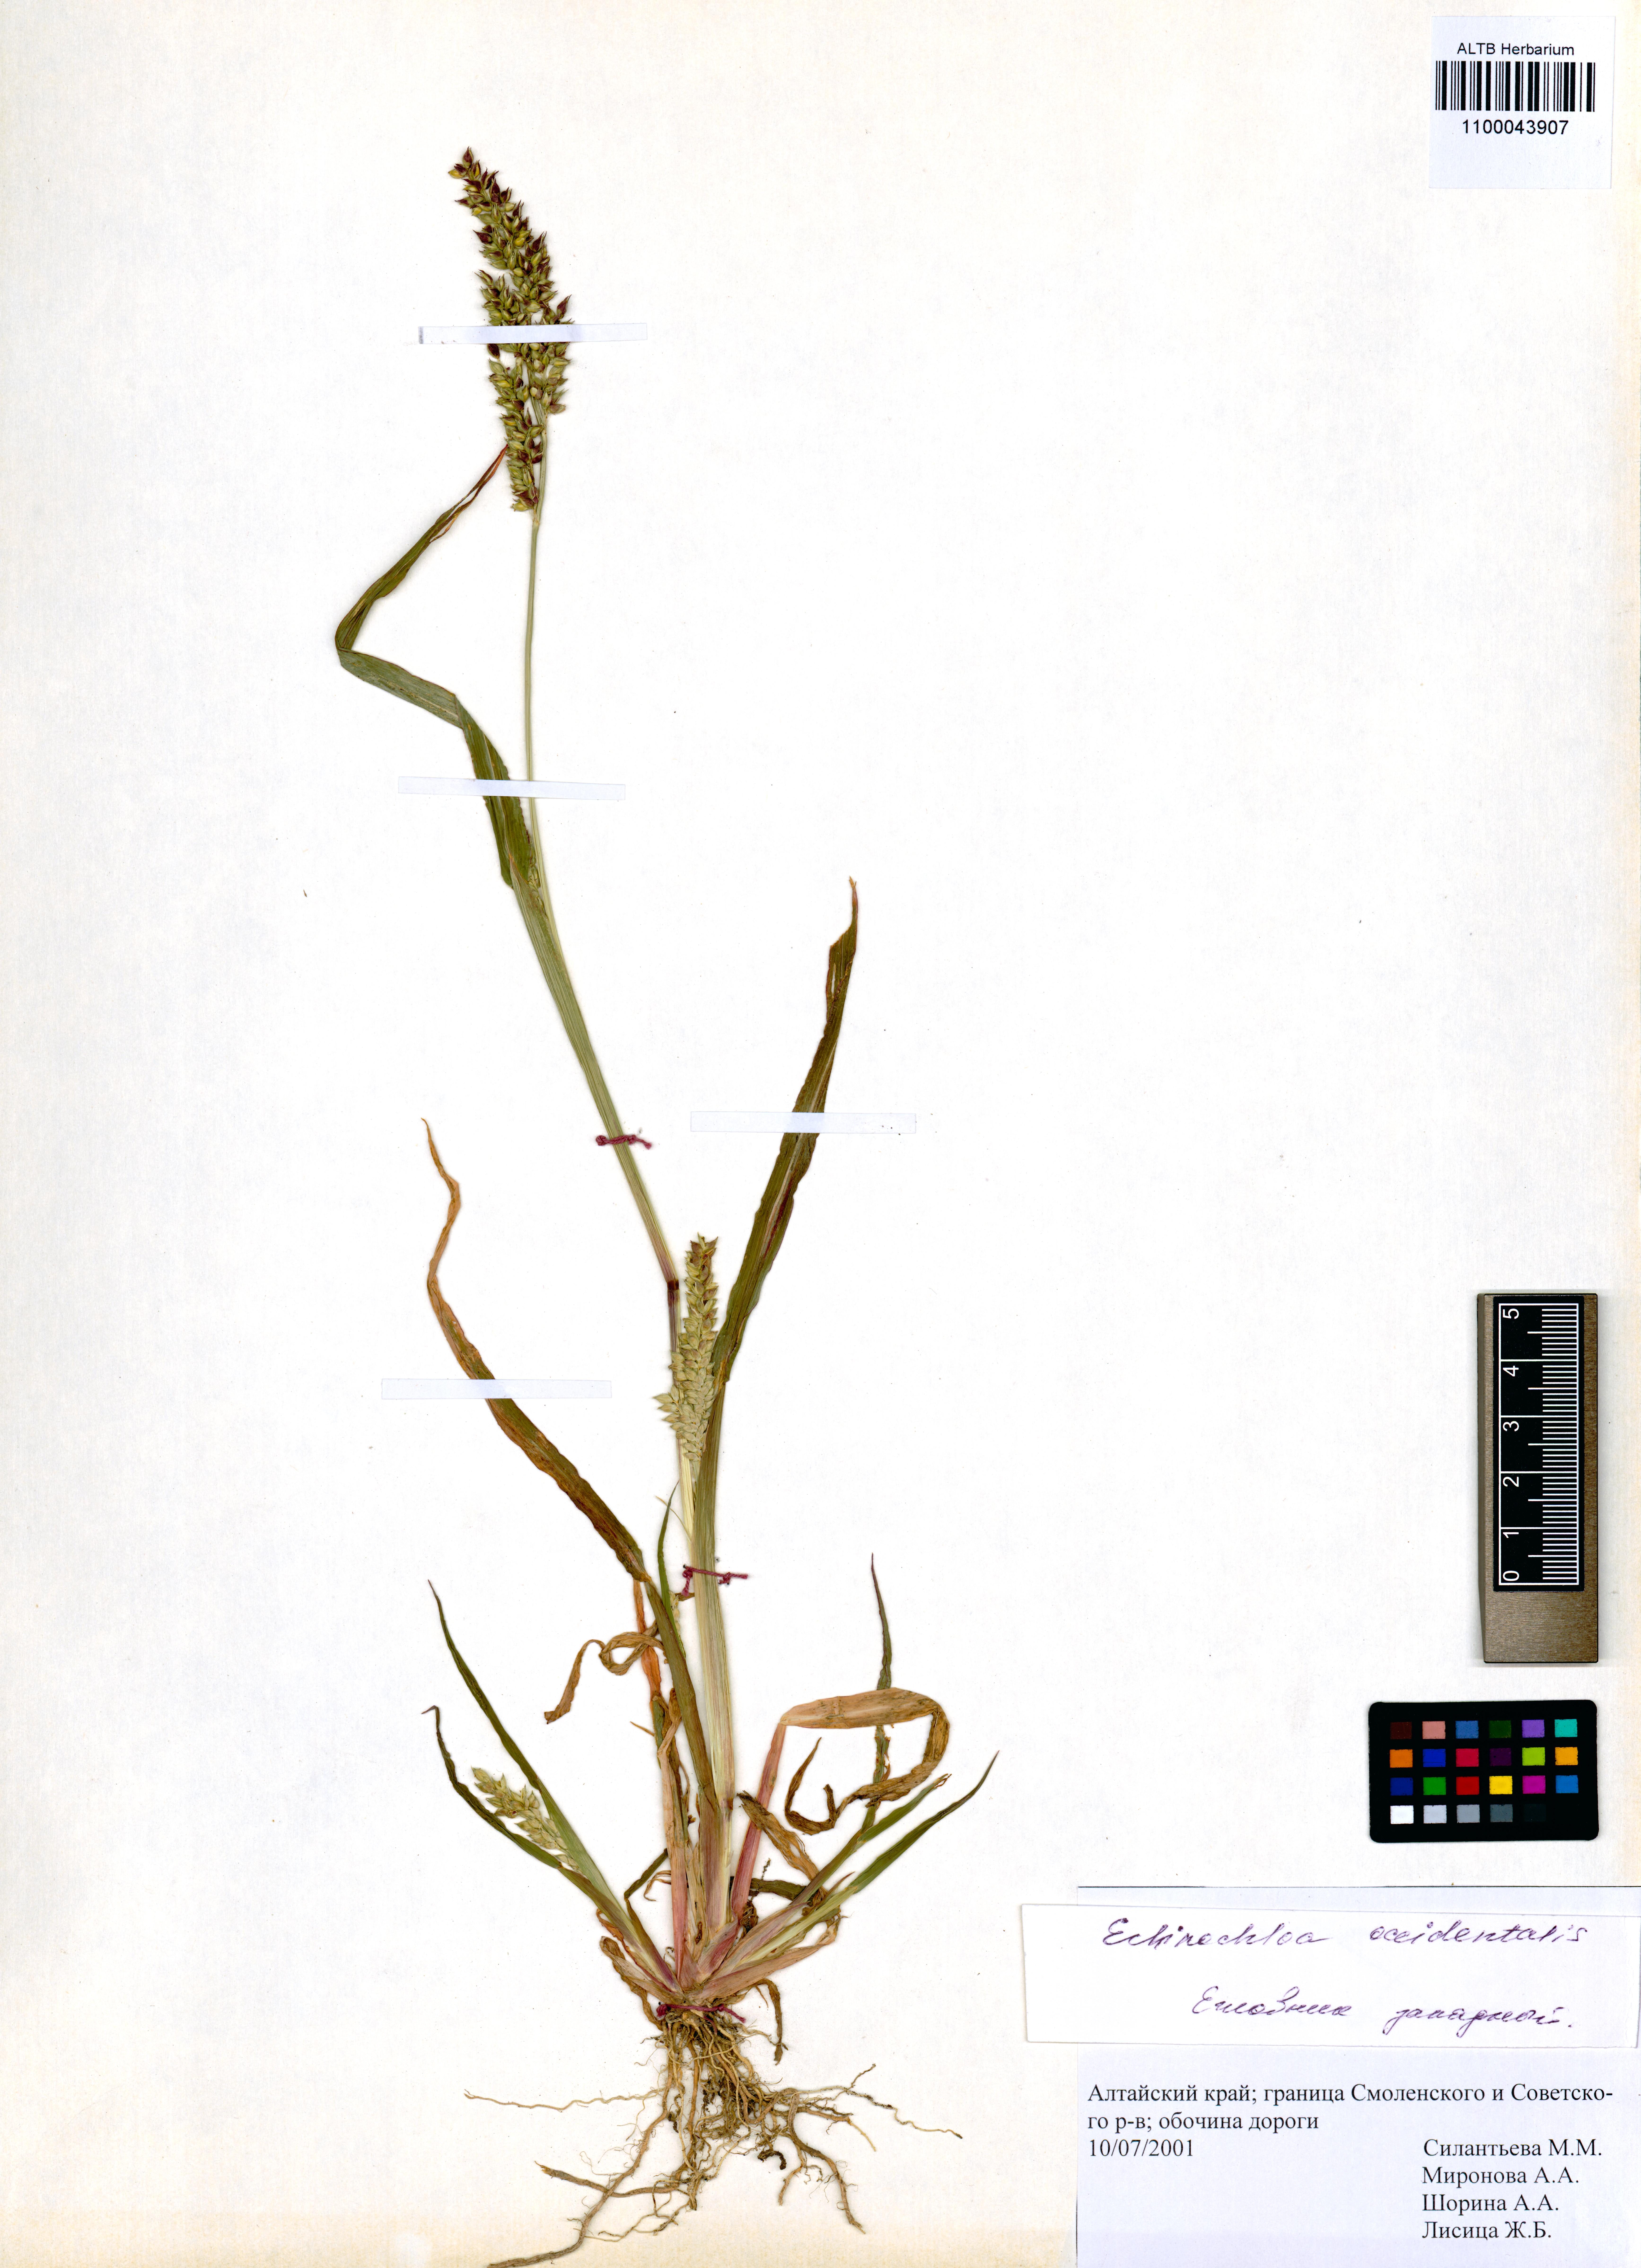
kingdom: Plantae
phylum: Tracheophyta
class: Liliopsida
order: Poales
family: Poaceae
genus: Echinochloa
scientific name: Echinochloa crus-galli
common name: Cockspur
